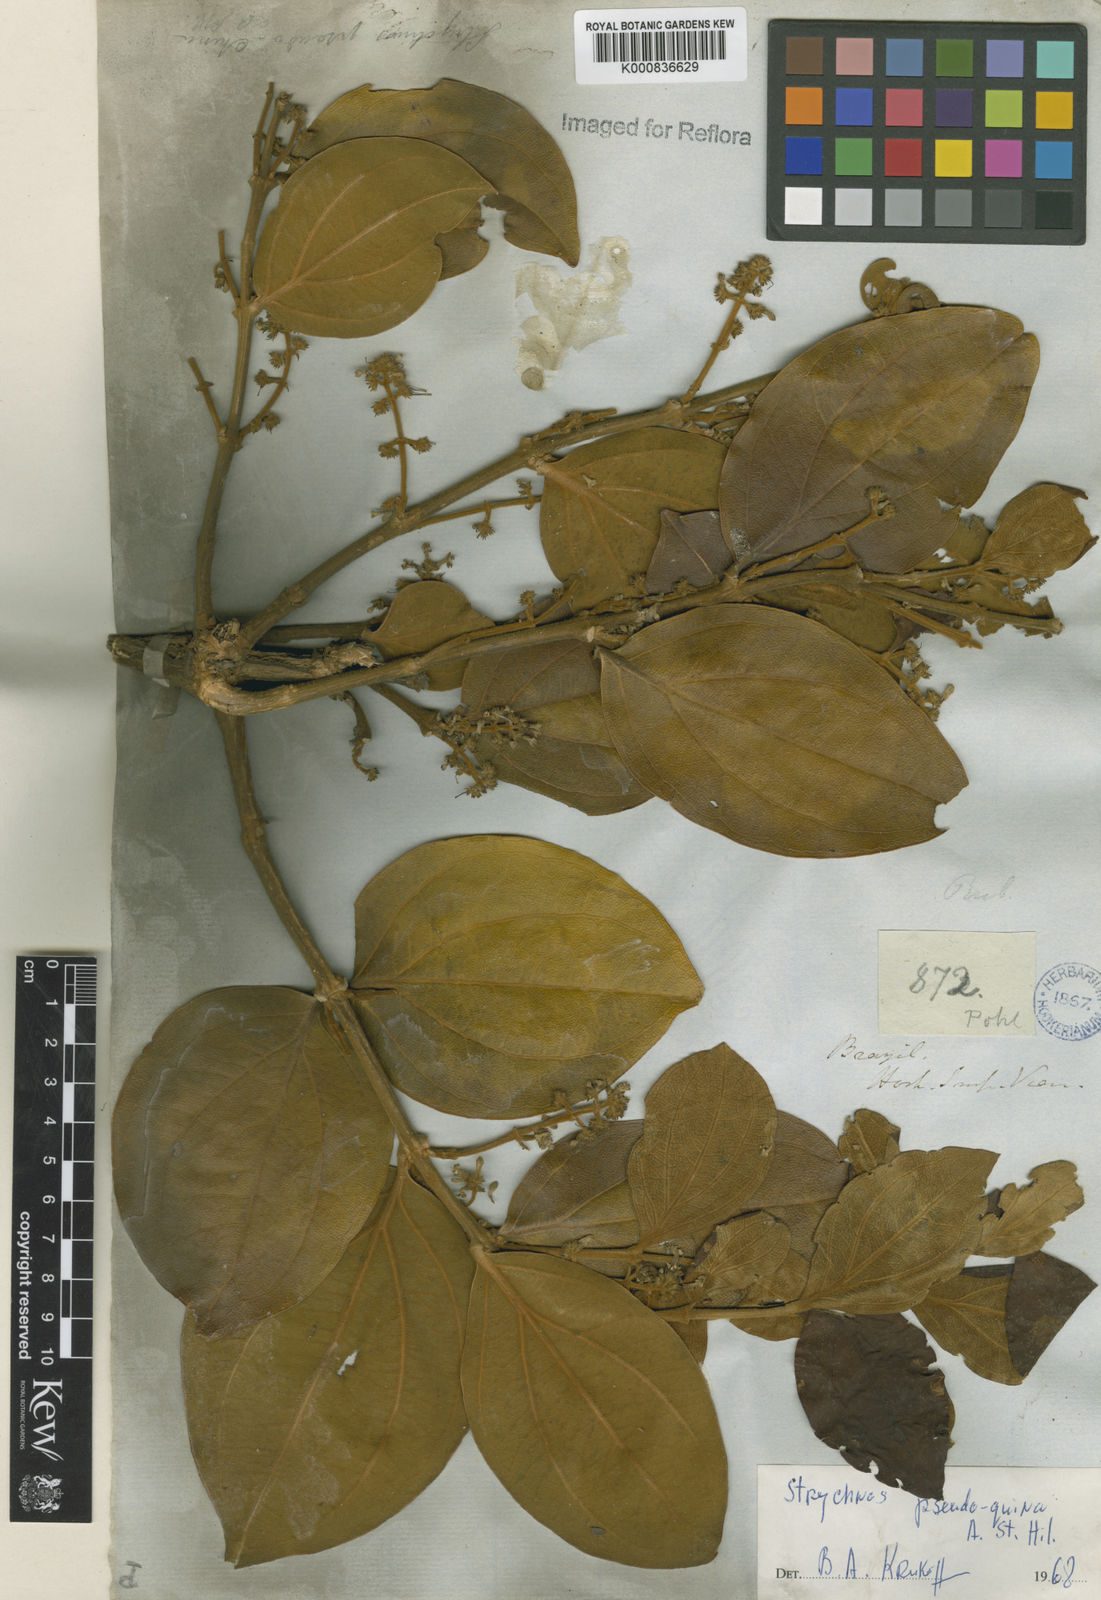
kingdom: Plantae
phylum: Tracheophyta
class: Magnoliopsida
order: Gentianales
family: Loganiaceae
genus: Strychnos
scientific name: Strychnos pseudoquina
